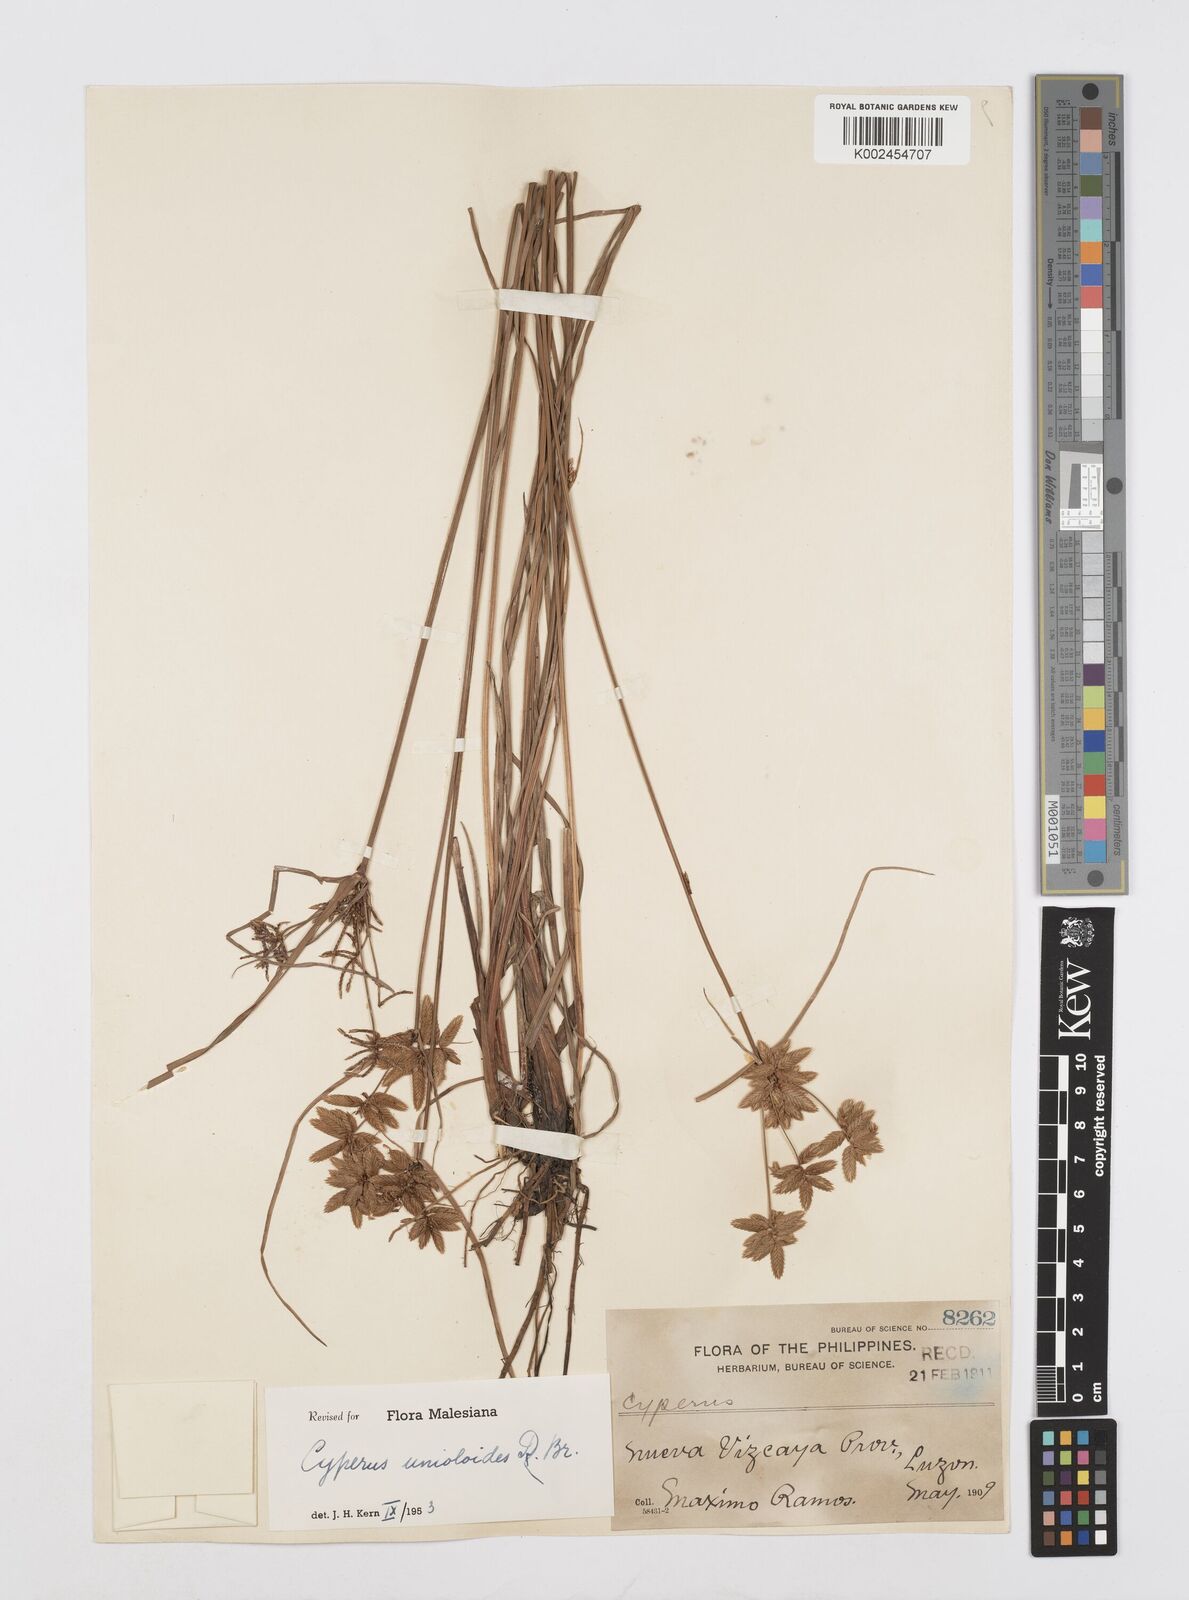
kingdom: Plantae
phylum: Tracheophyta
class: Liliopsida
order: Poales
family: Cyperaceae
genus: Cyperus
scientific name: Cyperus unioloides
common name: Uniola flatsedge
